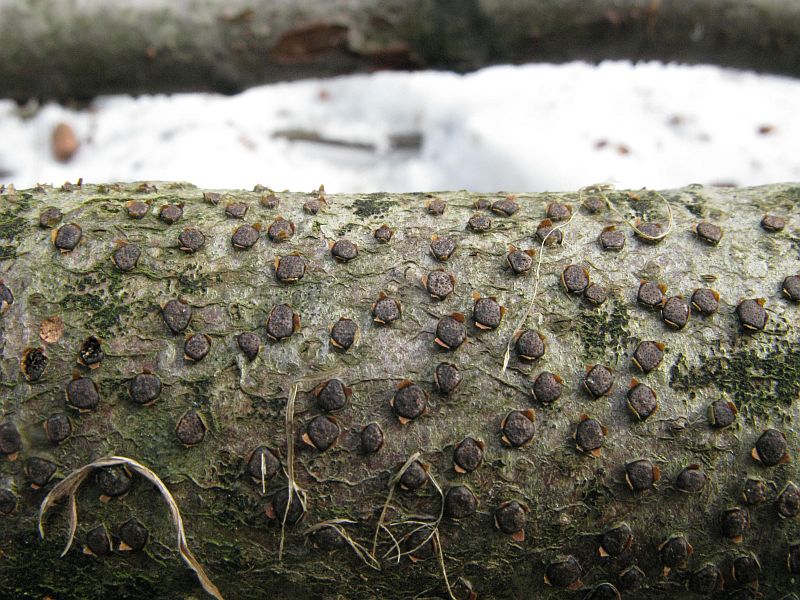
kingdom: Fungi
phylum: Ascomycota
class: Sordariomycetes
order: Xylariales
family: Diatrypaceae
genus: Diatrype
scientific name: Diatrype disciformis
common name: kant-kulskorpe
